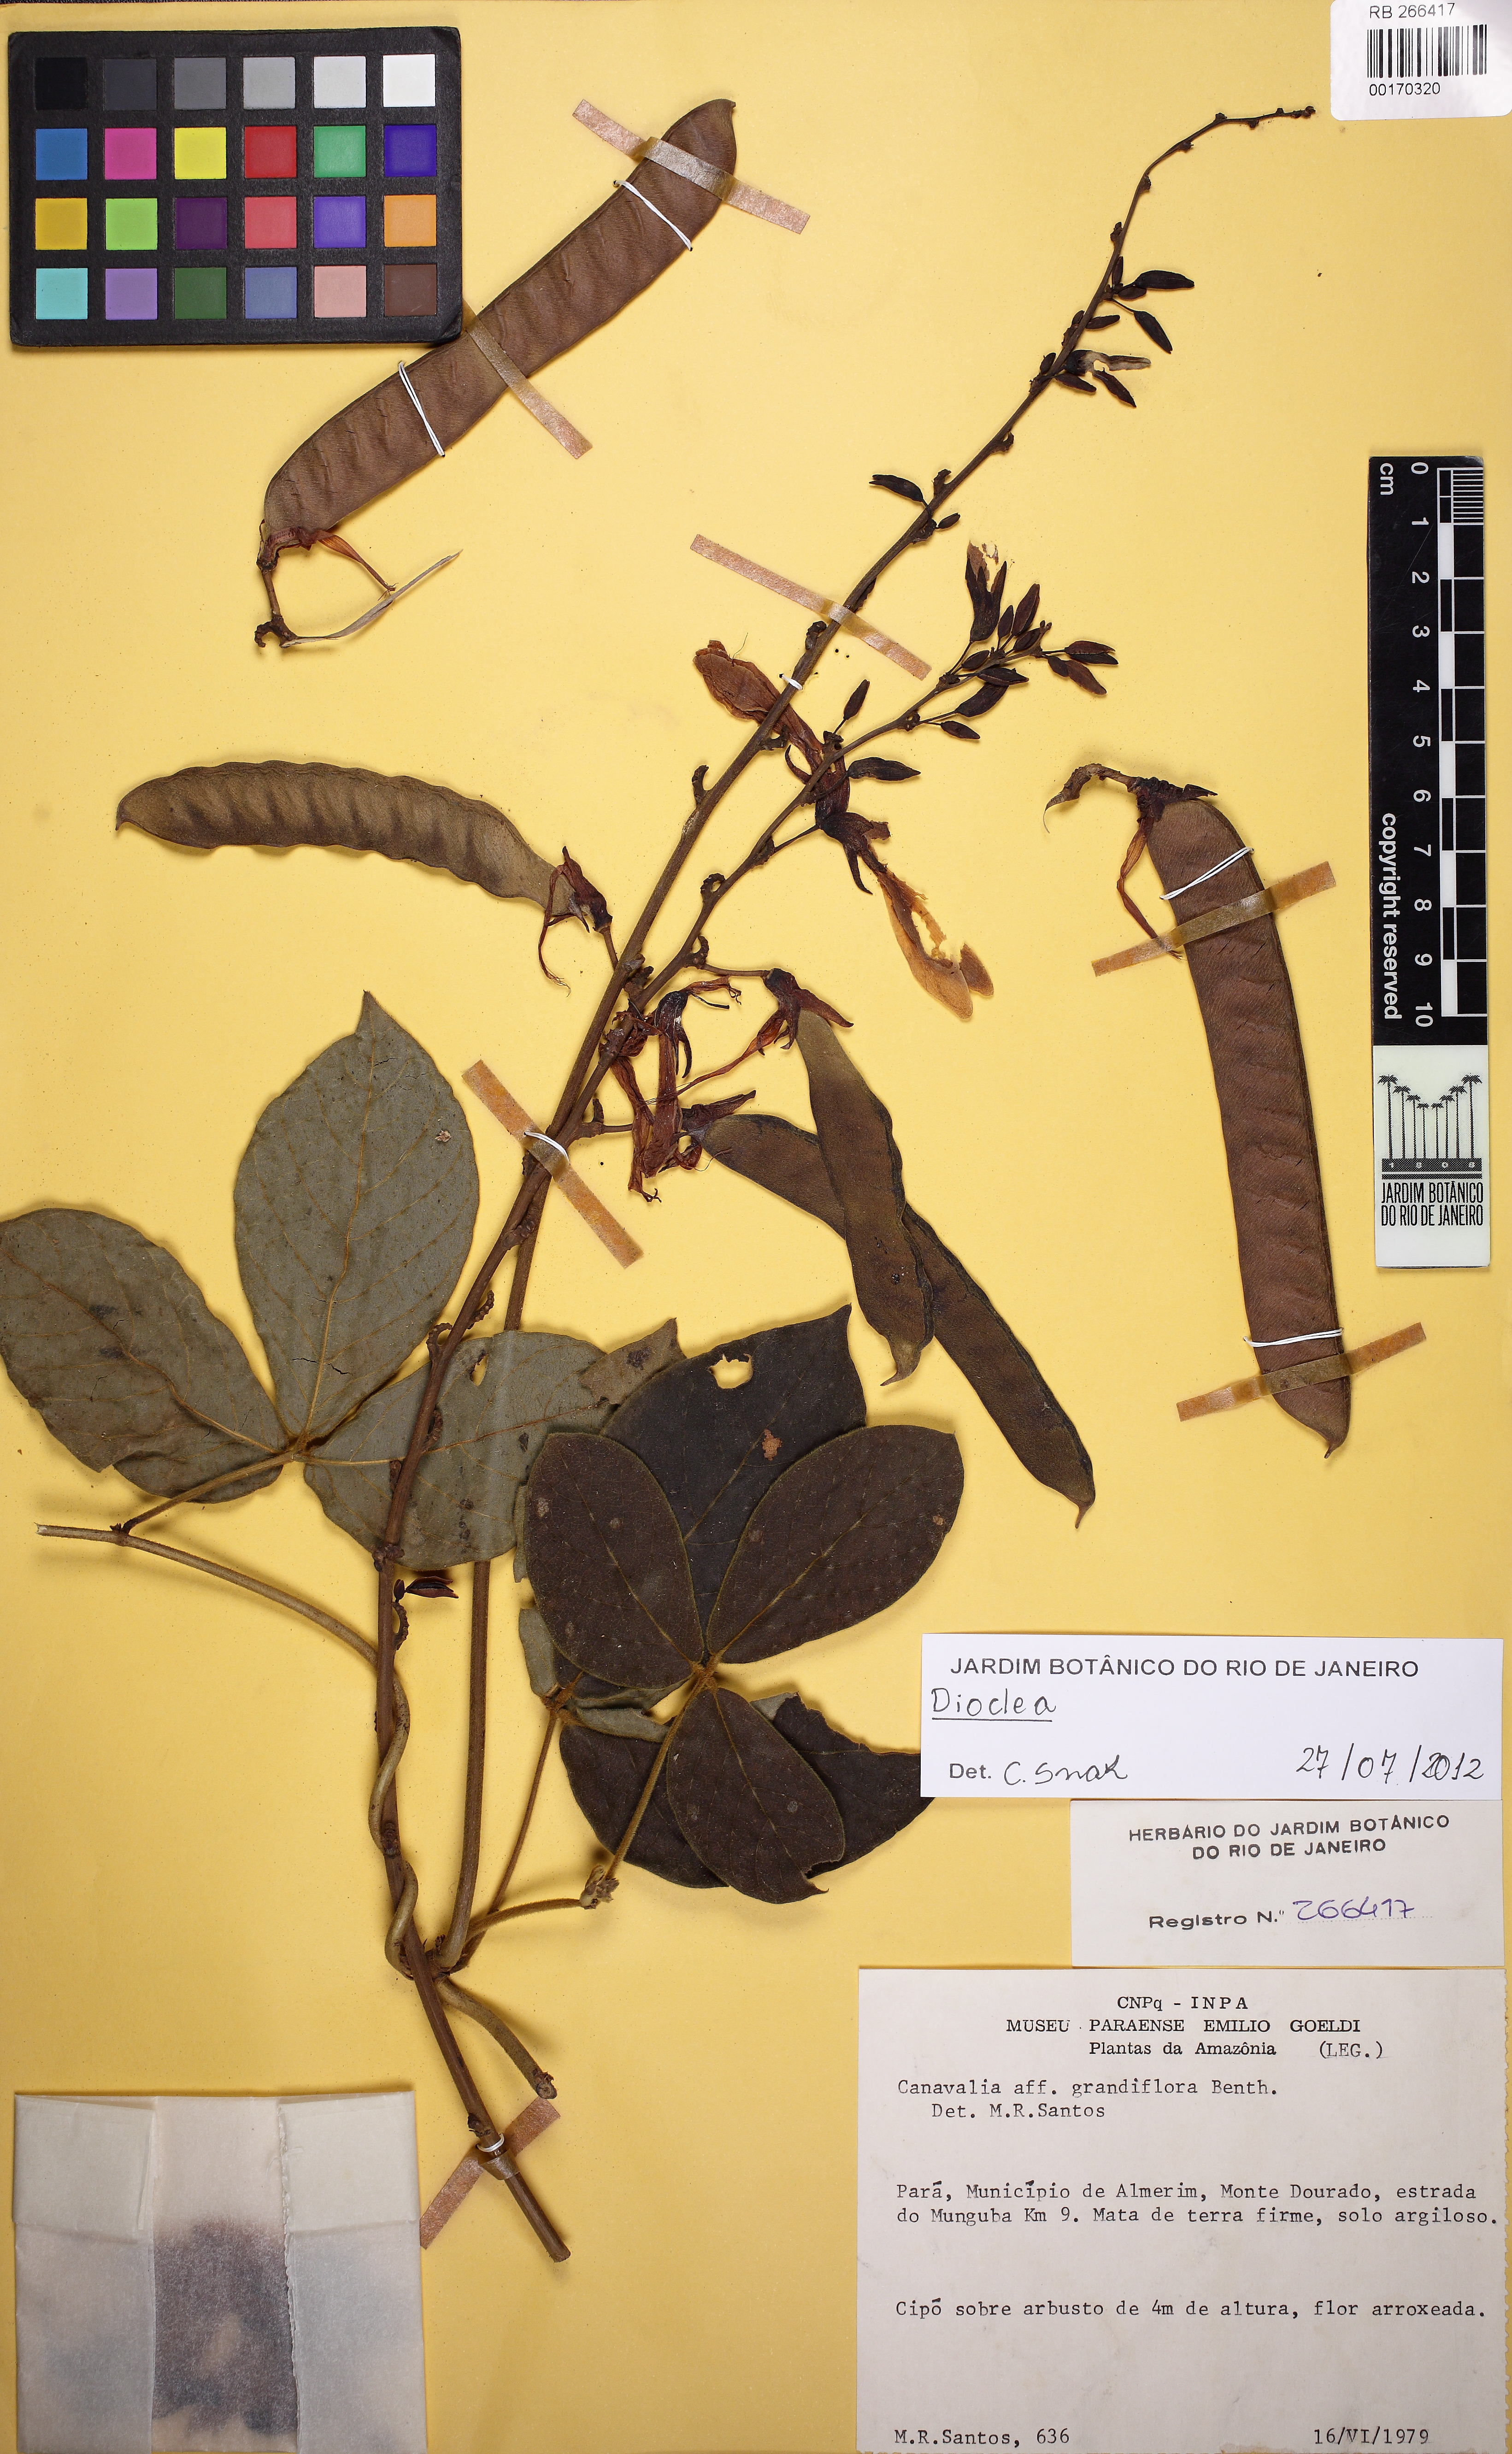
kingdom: Plantae
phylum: Tracheophyta
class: Magnoliopsida
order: Fabales
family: Fabaceae
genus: Dioclea
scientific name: Dioclea fimbriata
